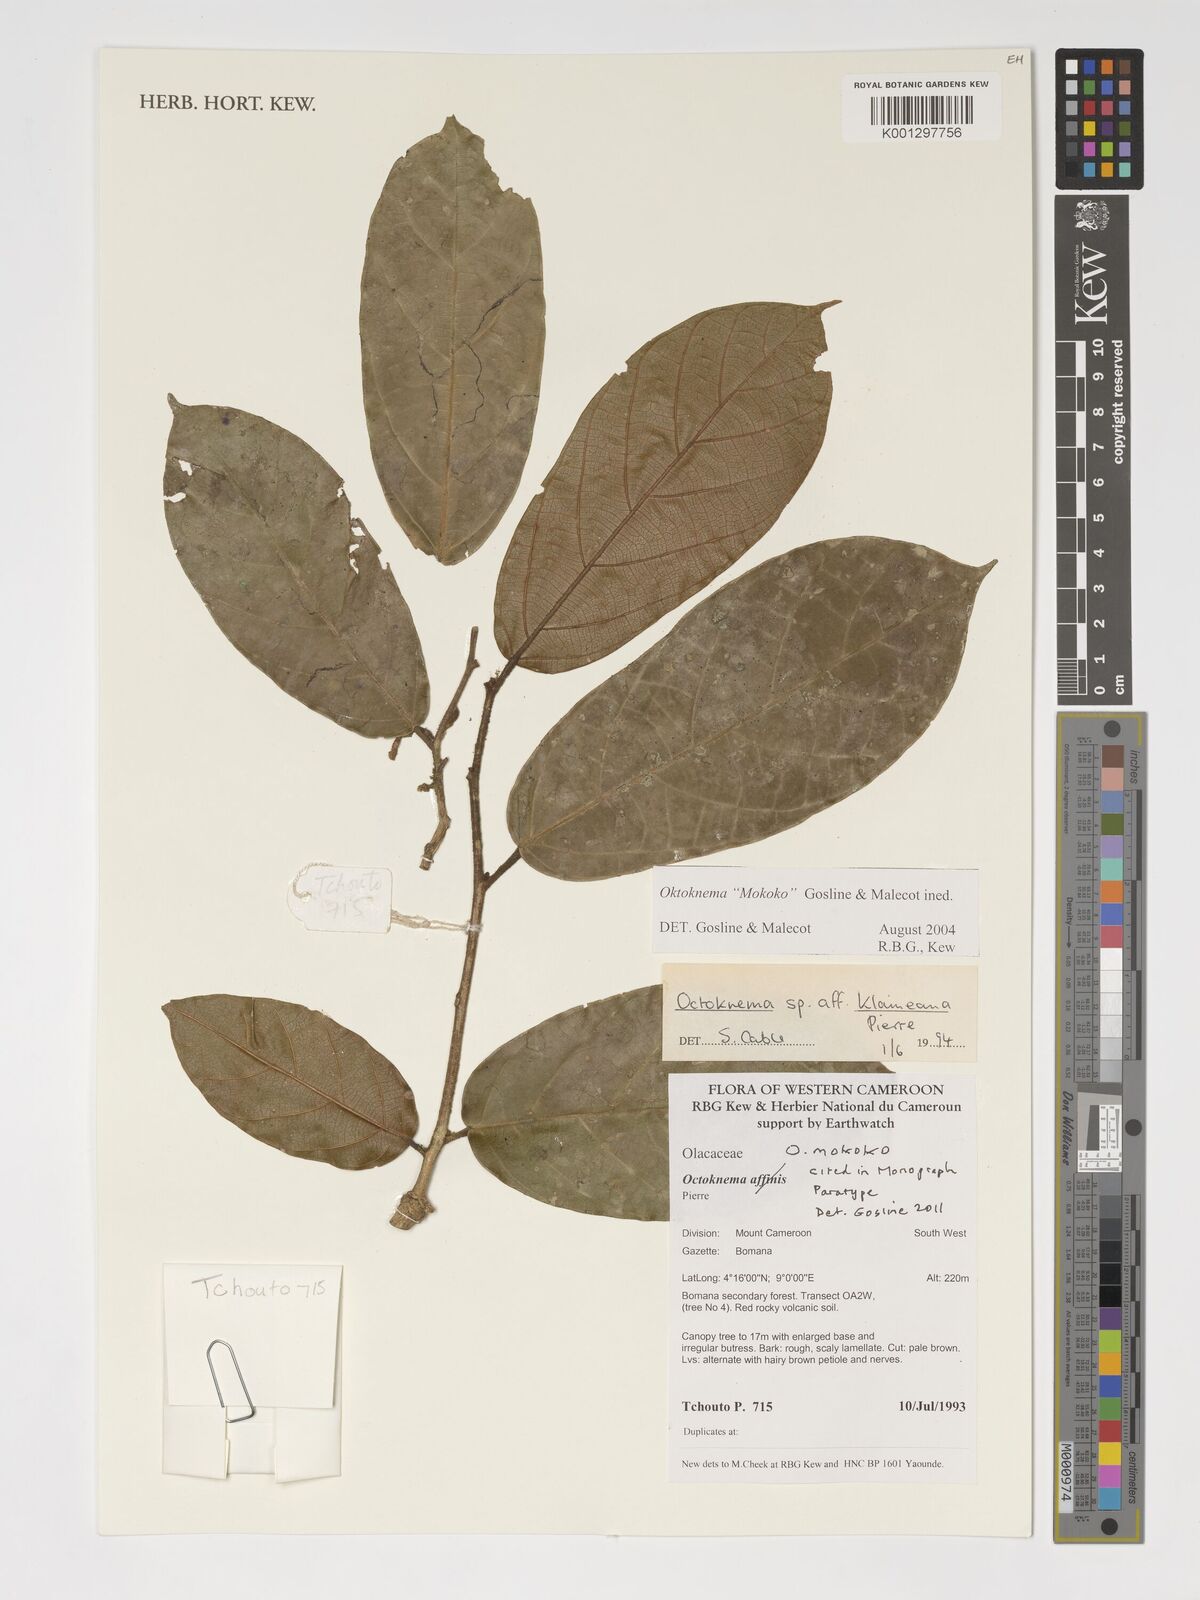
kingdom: Plantae
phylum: Tracheophyta
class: Magnoliopsida
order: Santalales
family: Octoknemaceae
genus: Octoknema
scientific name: Octoknema mokoko
